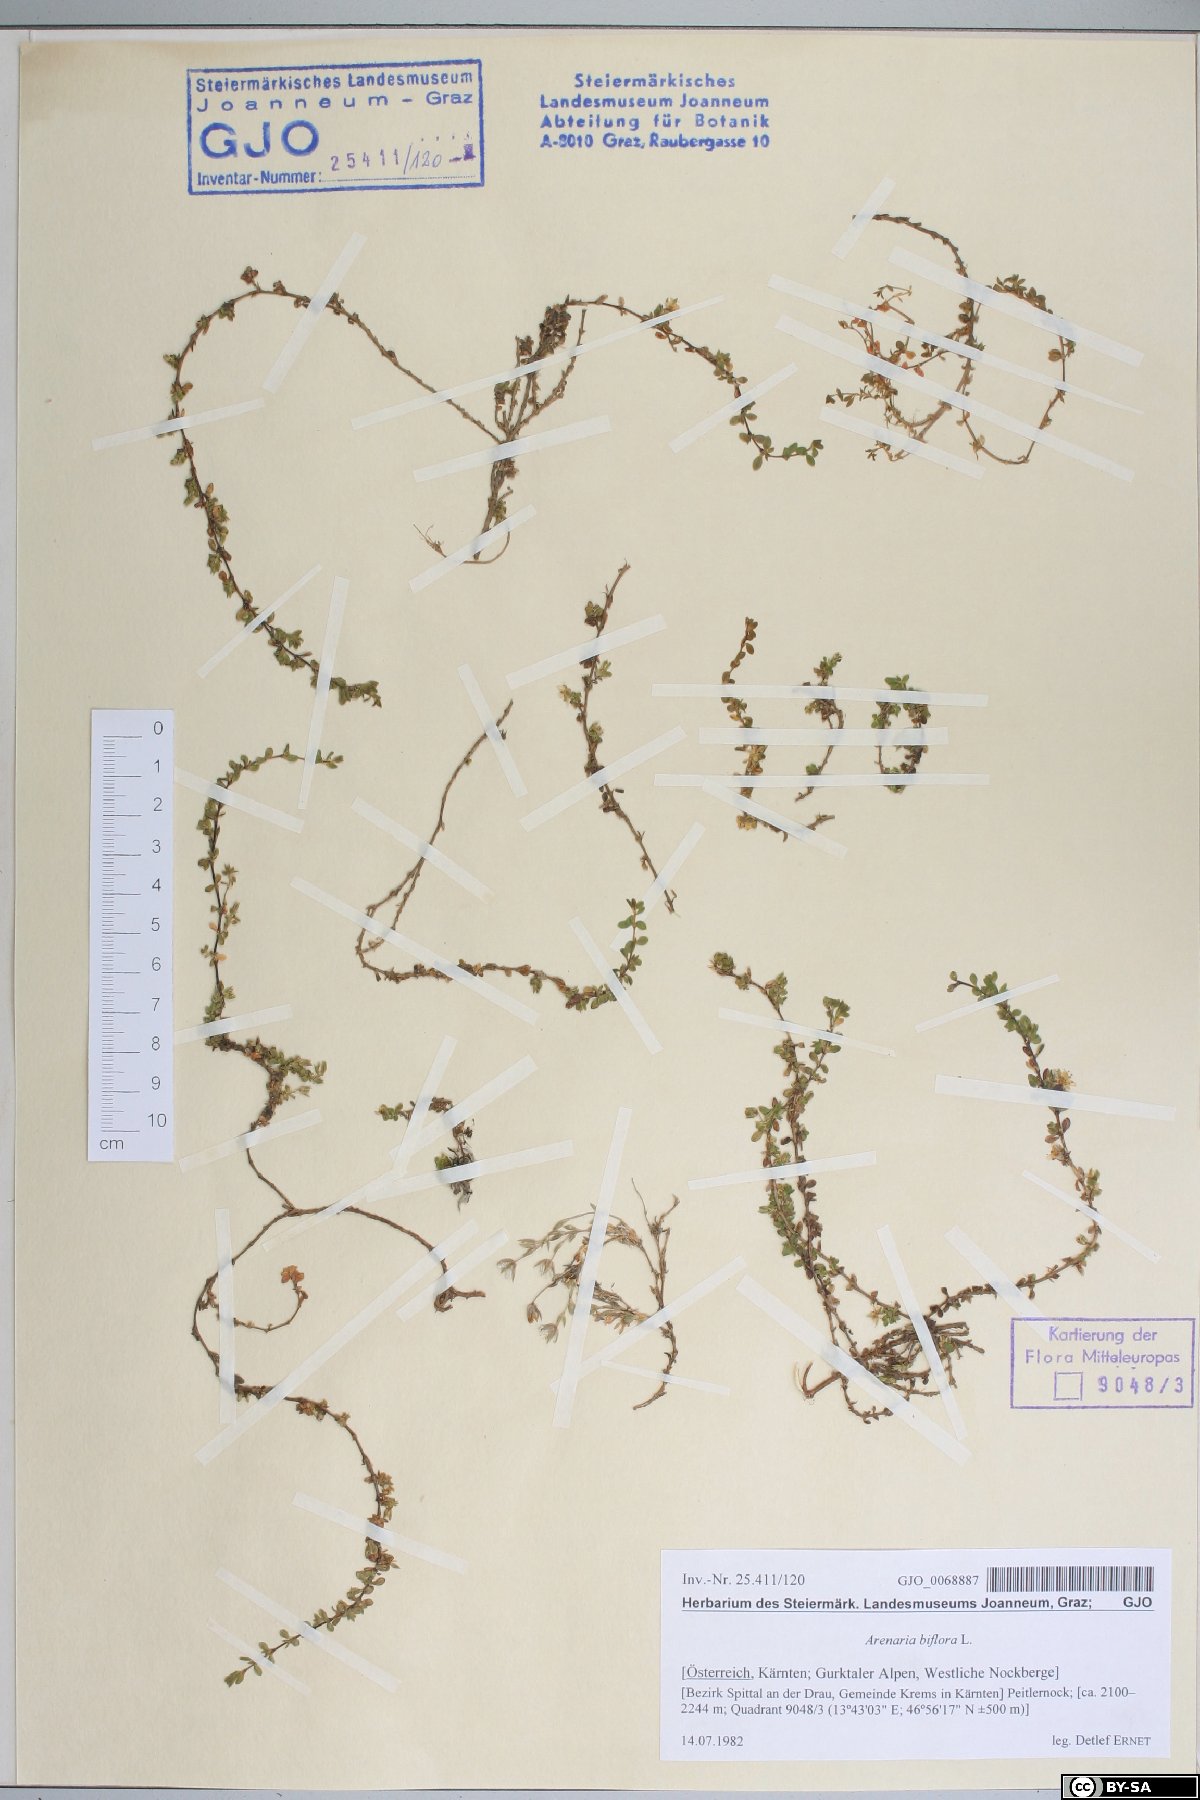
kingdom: Plantae
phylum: Tracheophyta
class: Magnoliopsida
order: Caryophyllales
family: Caryophyllaceae
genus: Arenaria
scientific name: Arenaria biflora
